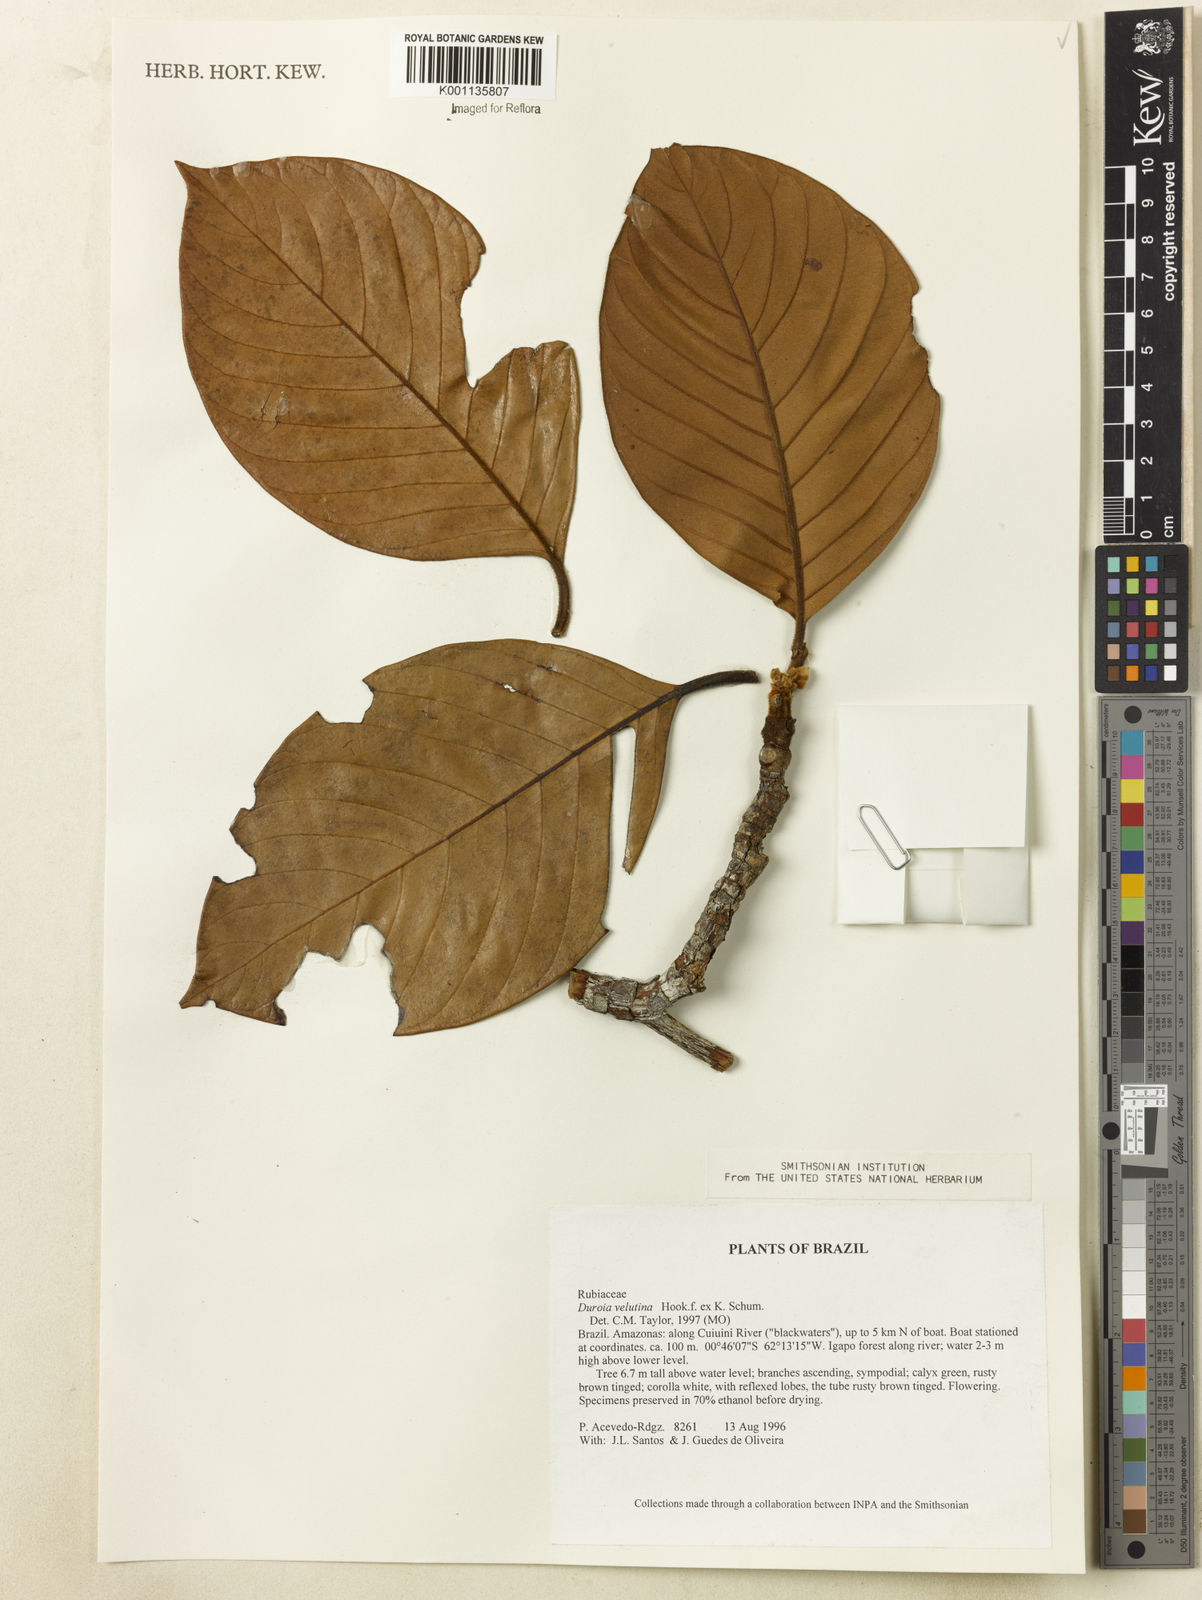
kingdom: Plantae
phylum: Tracheophyta
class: Magnoliopsida
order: Gentianales
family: Rubiaceae
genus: Duroia
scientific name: Duroia velutina
